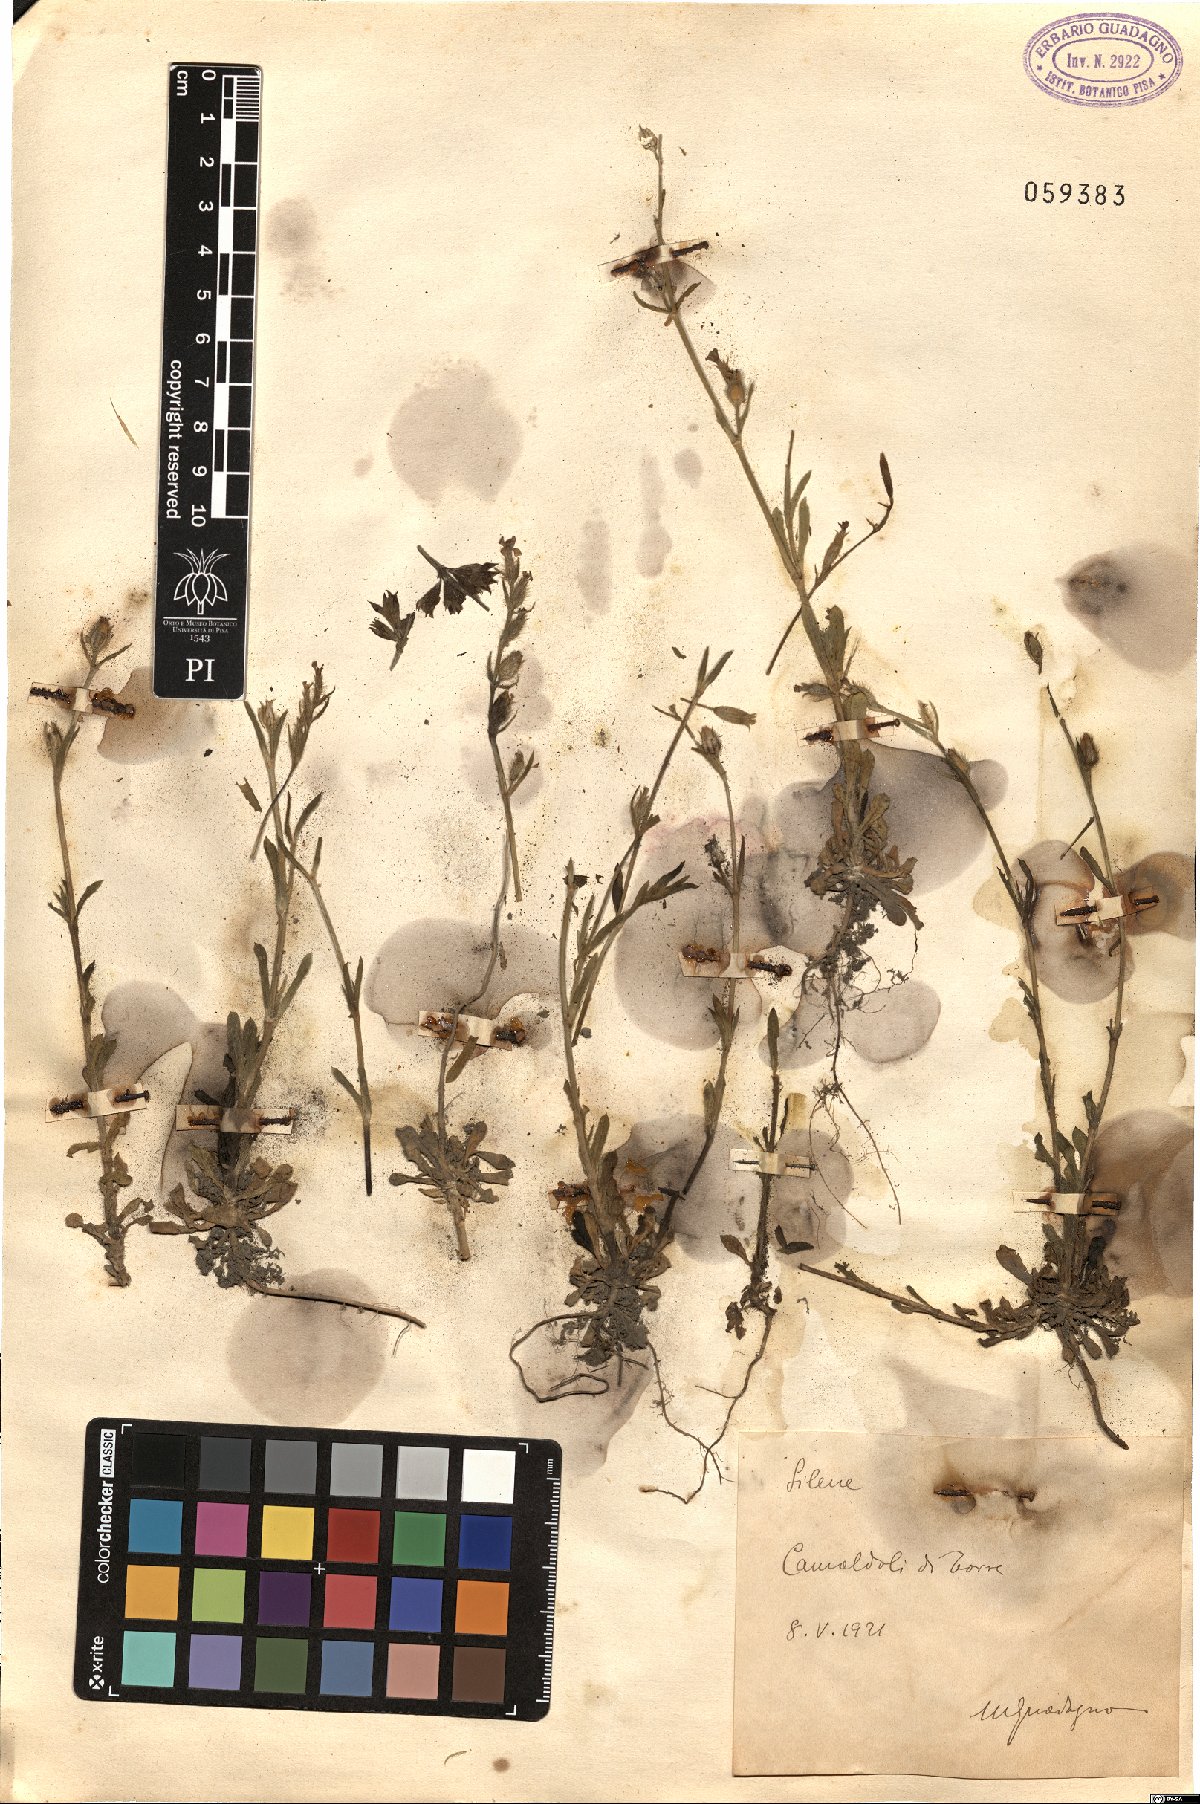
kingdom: Plantae
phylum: Tracheophyta
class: Magnoliopsida
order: Caryophyllales
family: Caryophyllaceae
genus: Silene
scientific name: Silene
